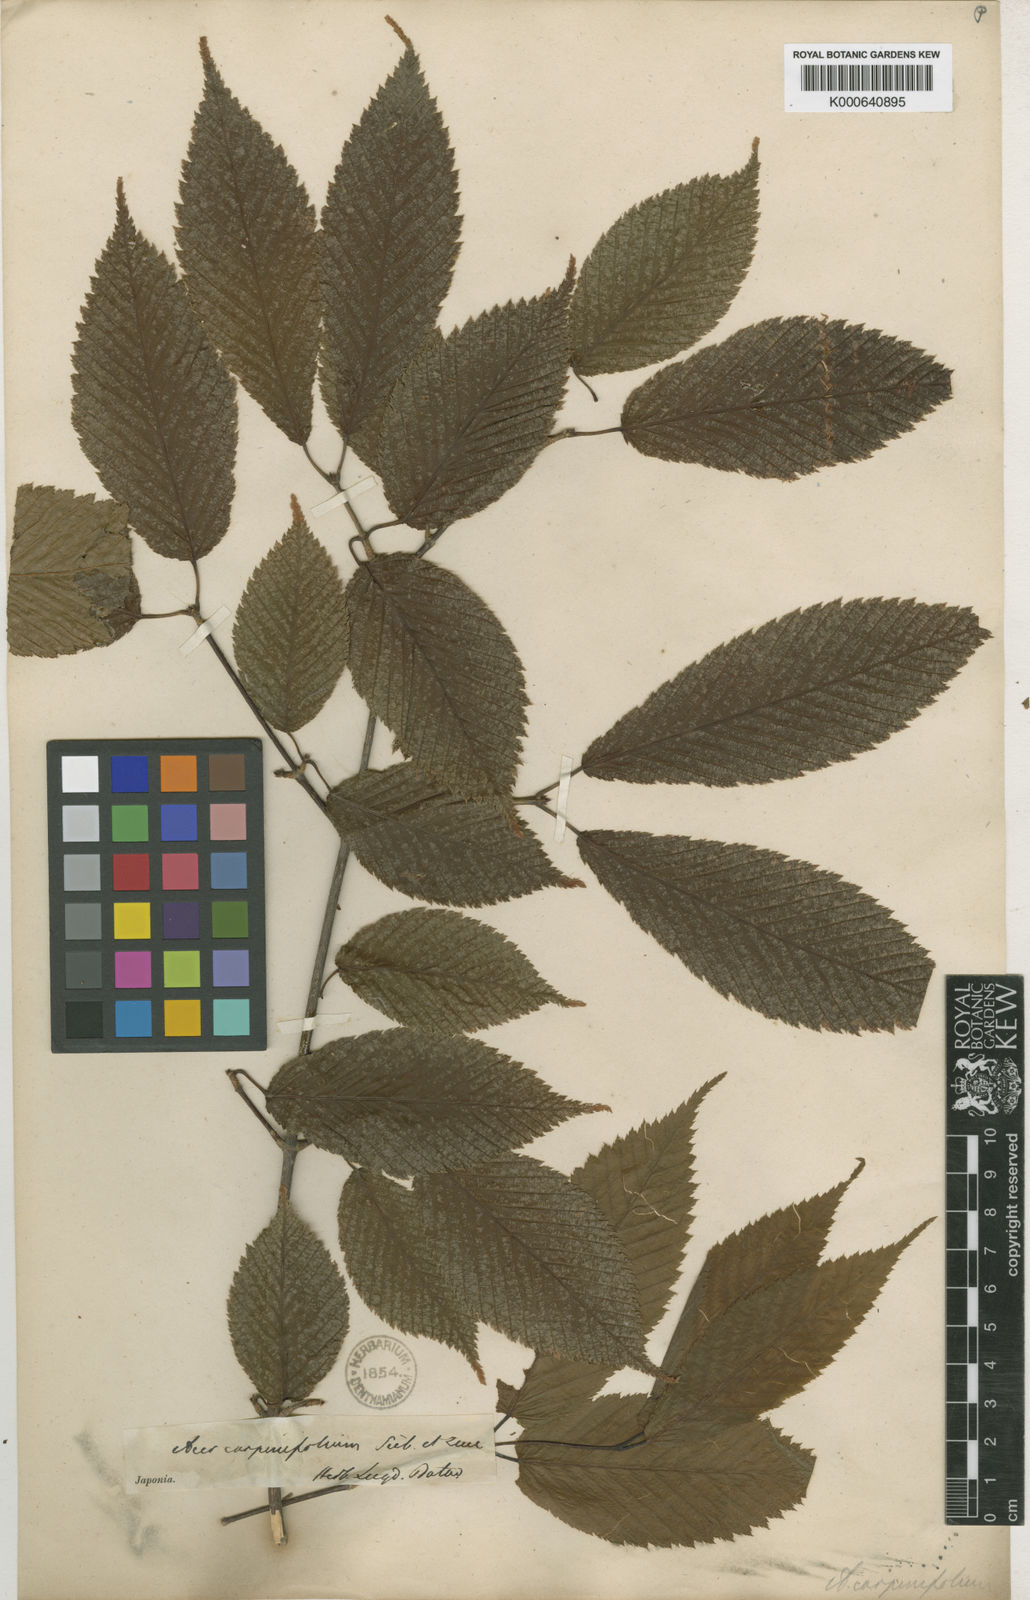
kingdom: Plantae
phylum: Tracheophyta
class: Magnoliopsida
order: Sapindales
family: Sapindaceae
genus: Acer
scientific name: Acer carpinifolium
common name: Hornbeam maple
